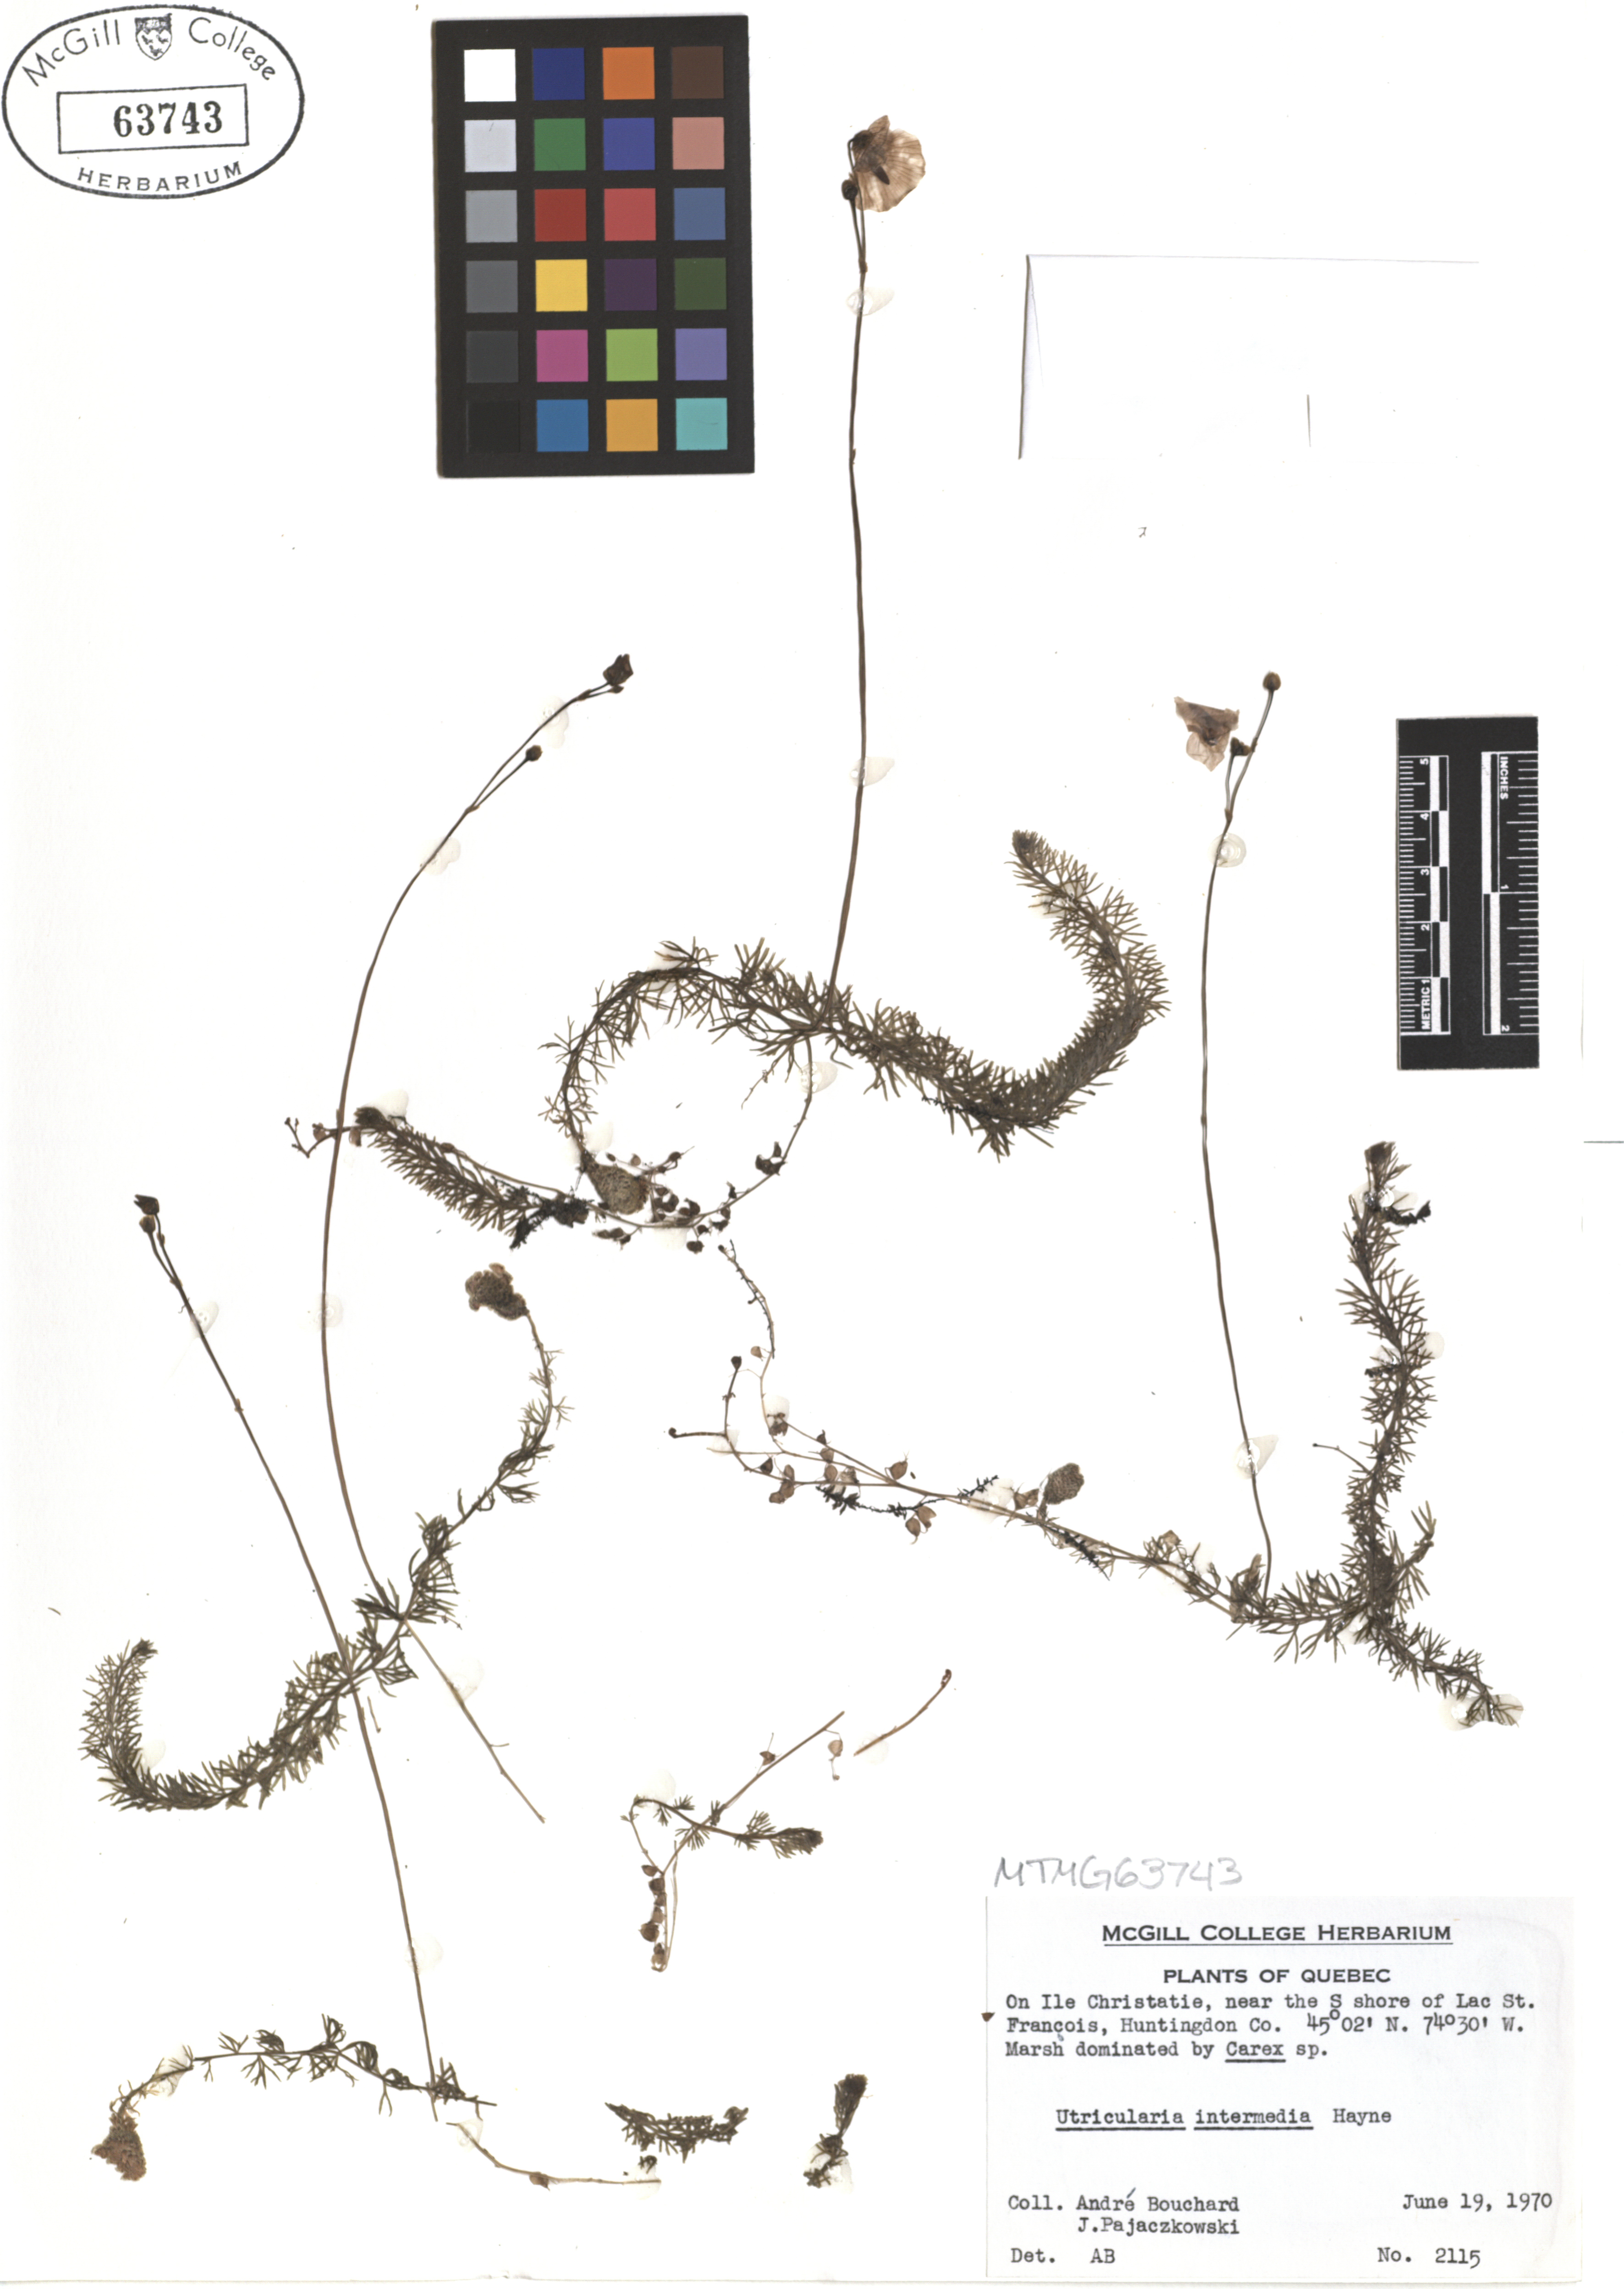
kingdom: Plantae
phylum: Tracheophyta
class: Magnoliopsida
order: Lamiales
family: Lentibulariaceae
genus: Utricularia
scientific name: Utricularia intermedia
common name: Intermediate bladderwort
